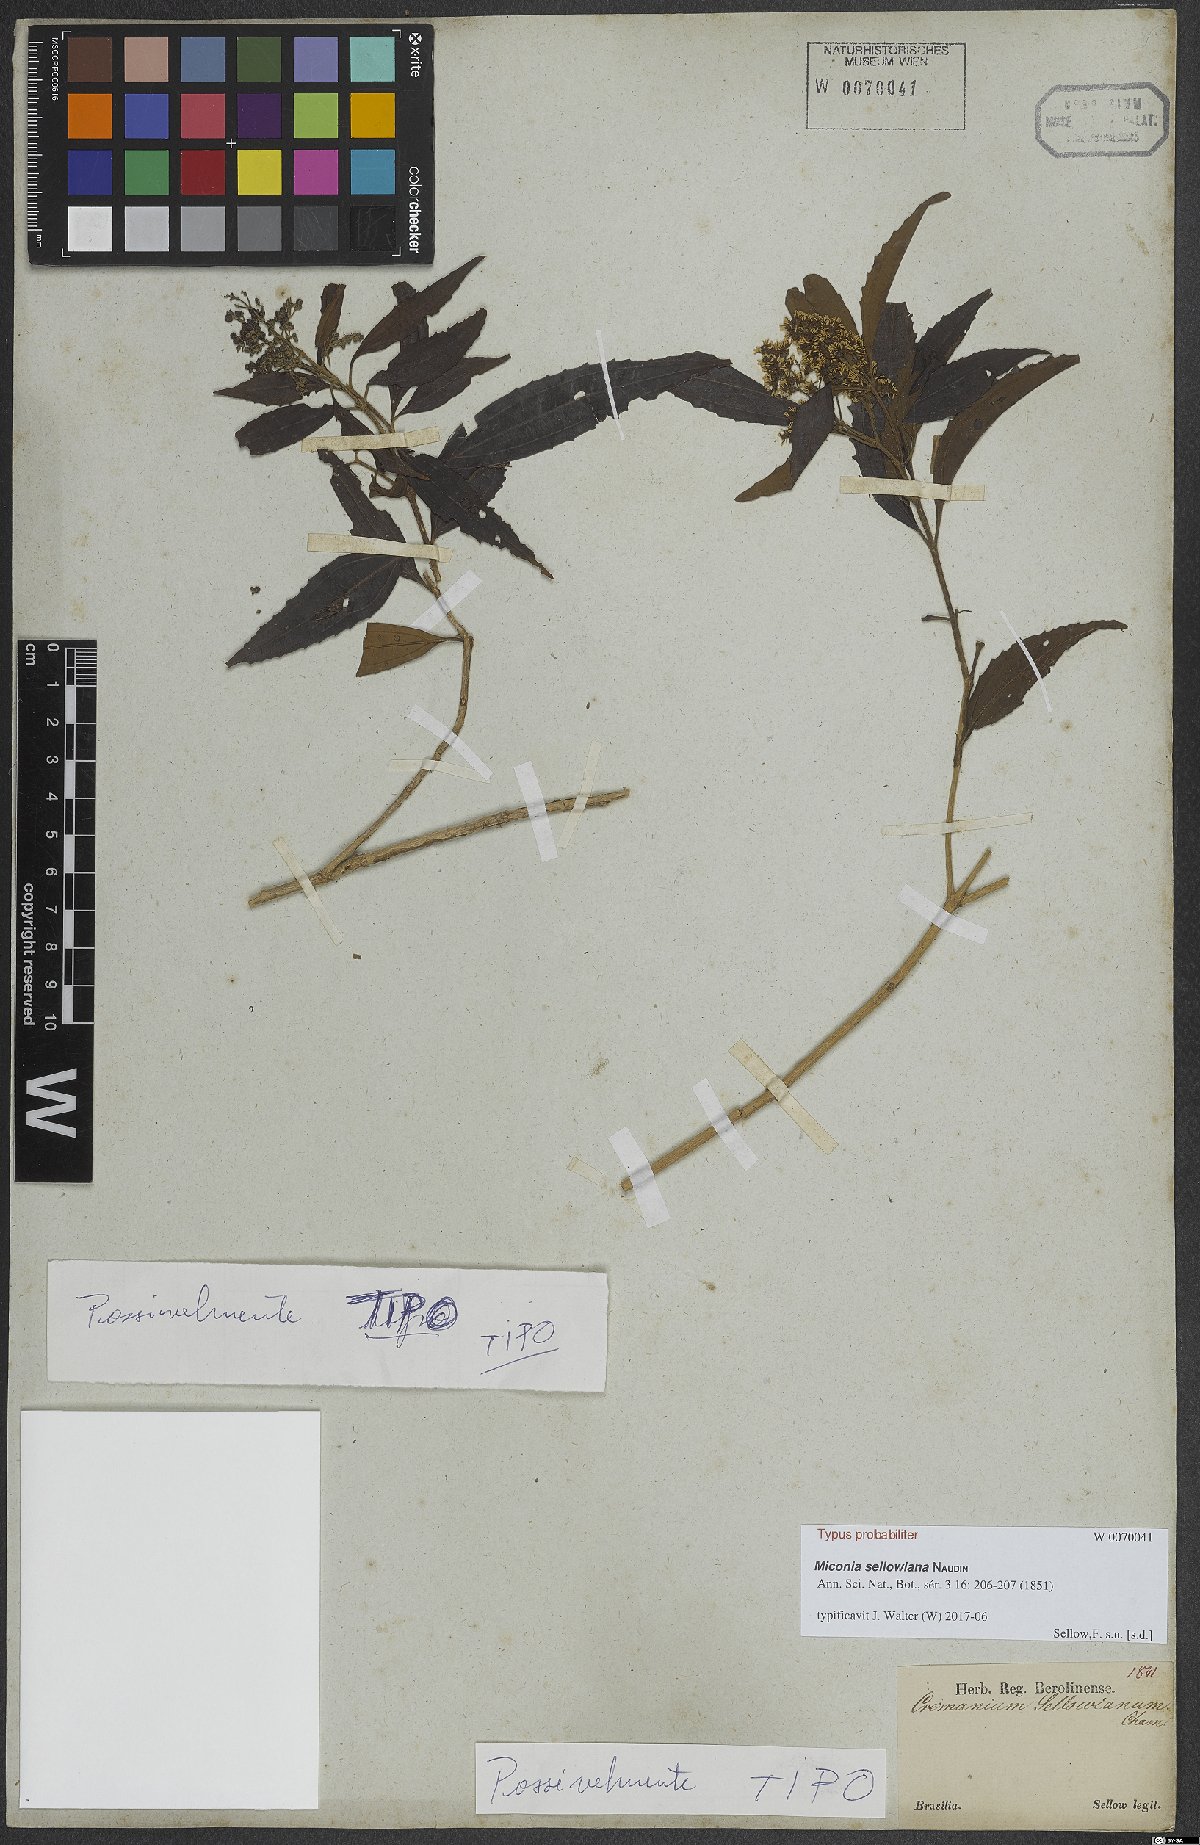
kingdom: Plantae
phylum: Tracheophyta
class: Magnoliopsida
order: Myrtales
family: Melastomataceae
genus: Miconia
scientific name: Miconia sellowiana
